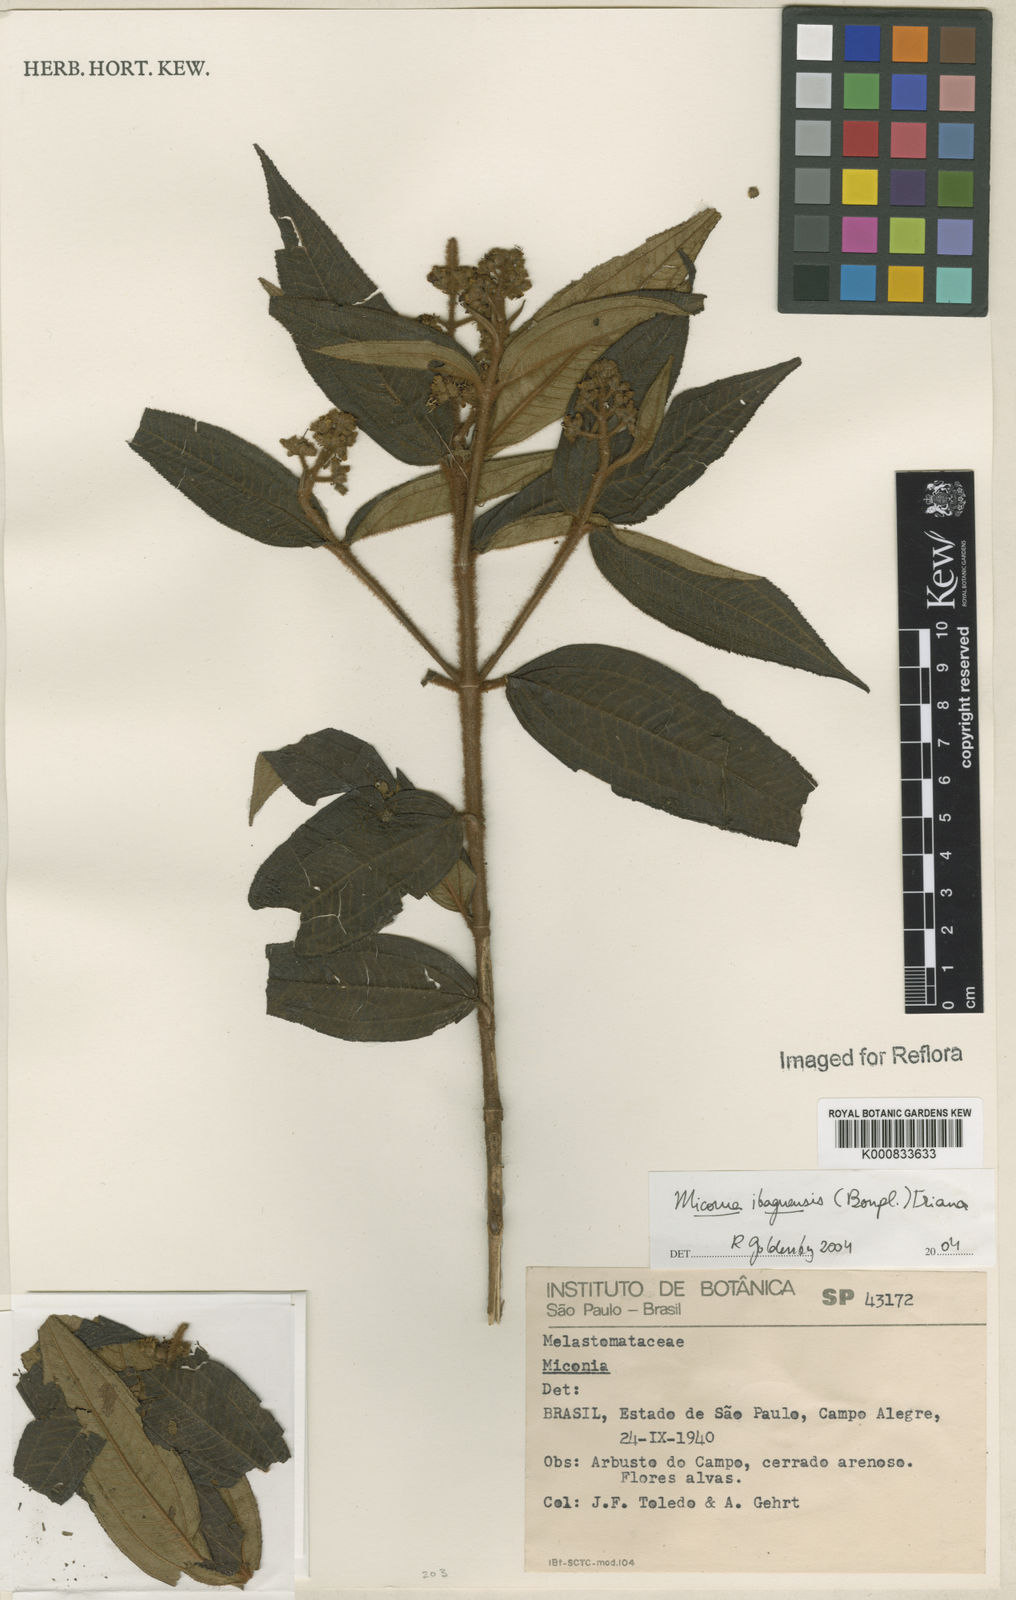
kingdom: Plantae
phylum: Tracheophyta
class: Magnoliopsida
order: Myrtales
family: Melastomataceae
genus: Miconia
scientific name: Miconia ibaguensis
